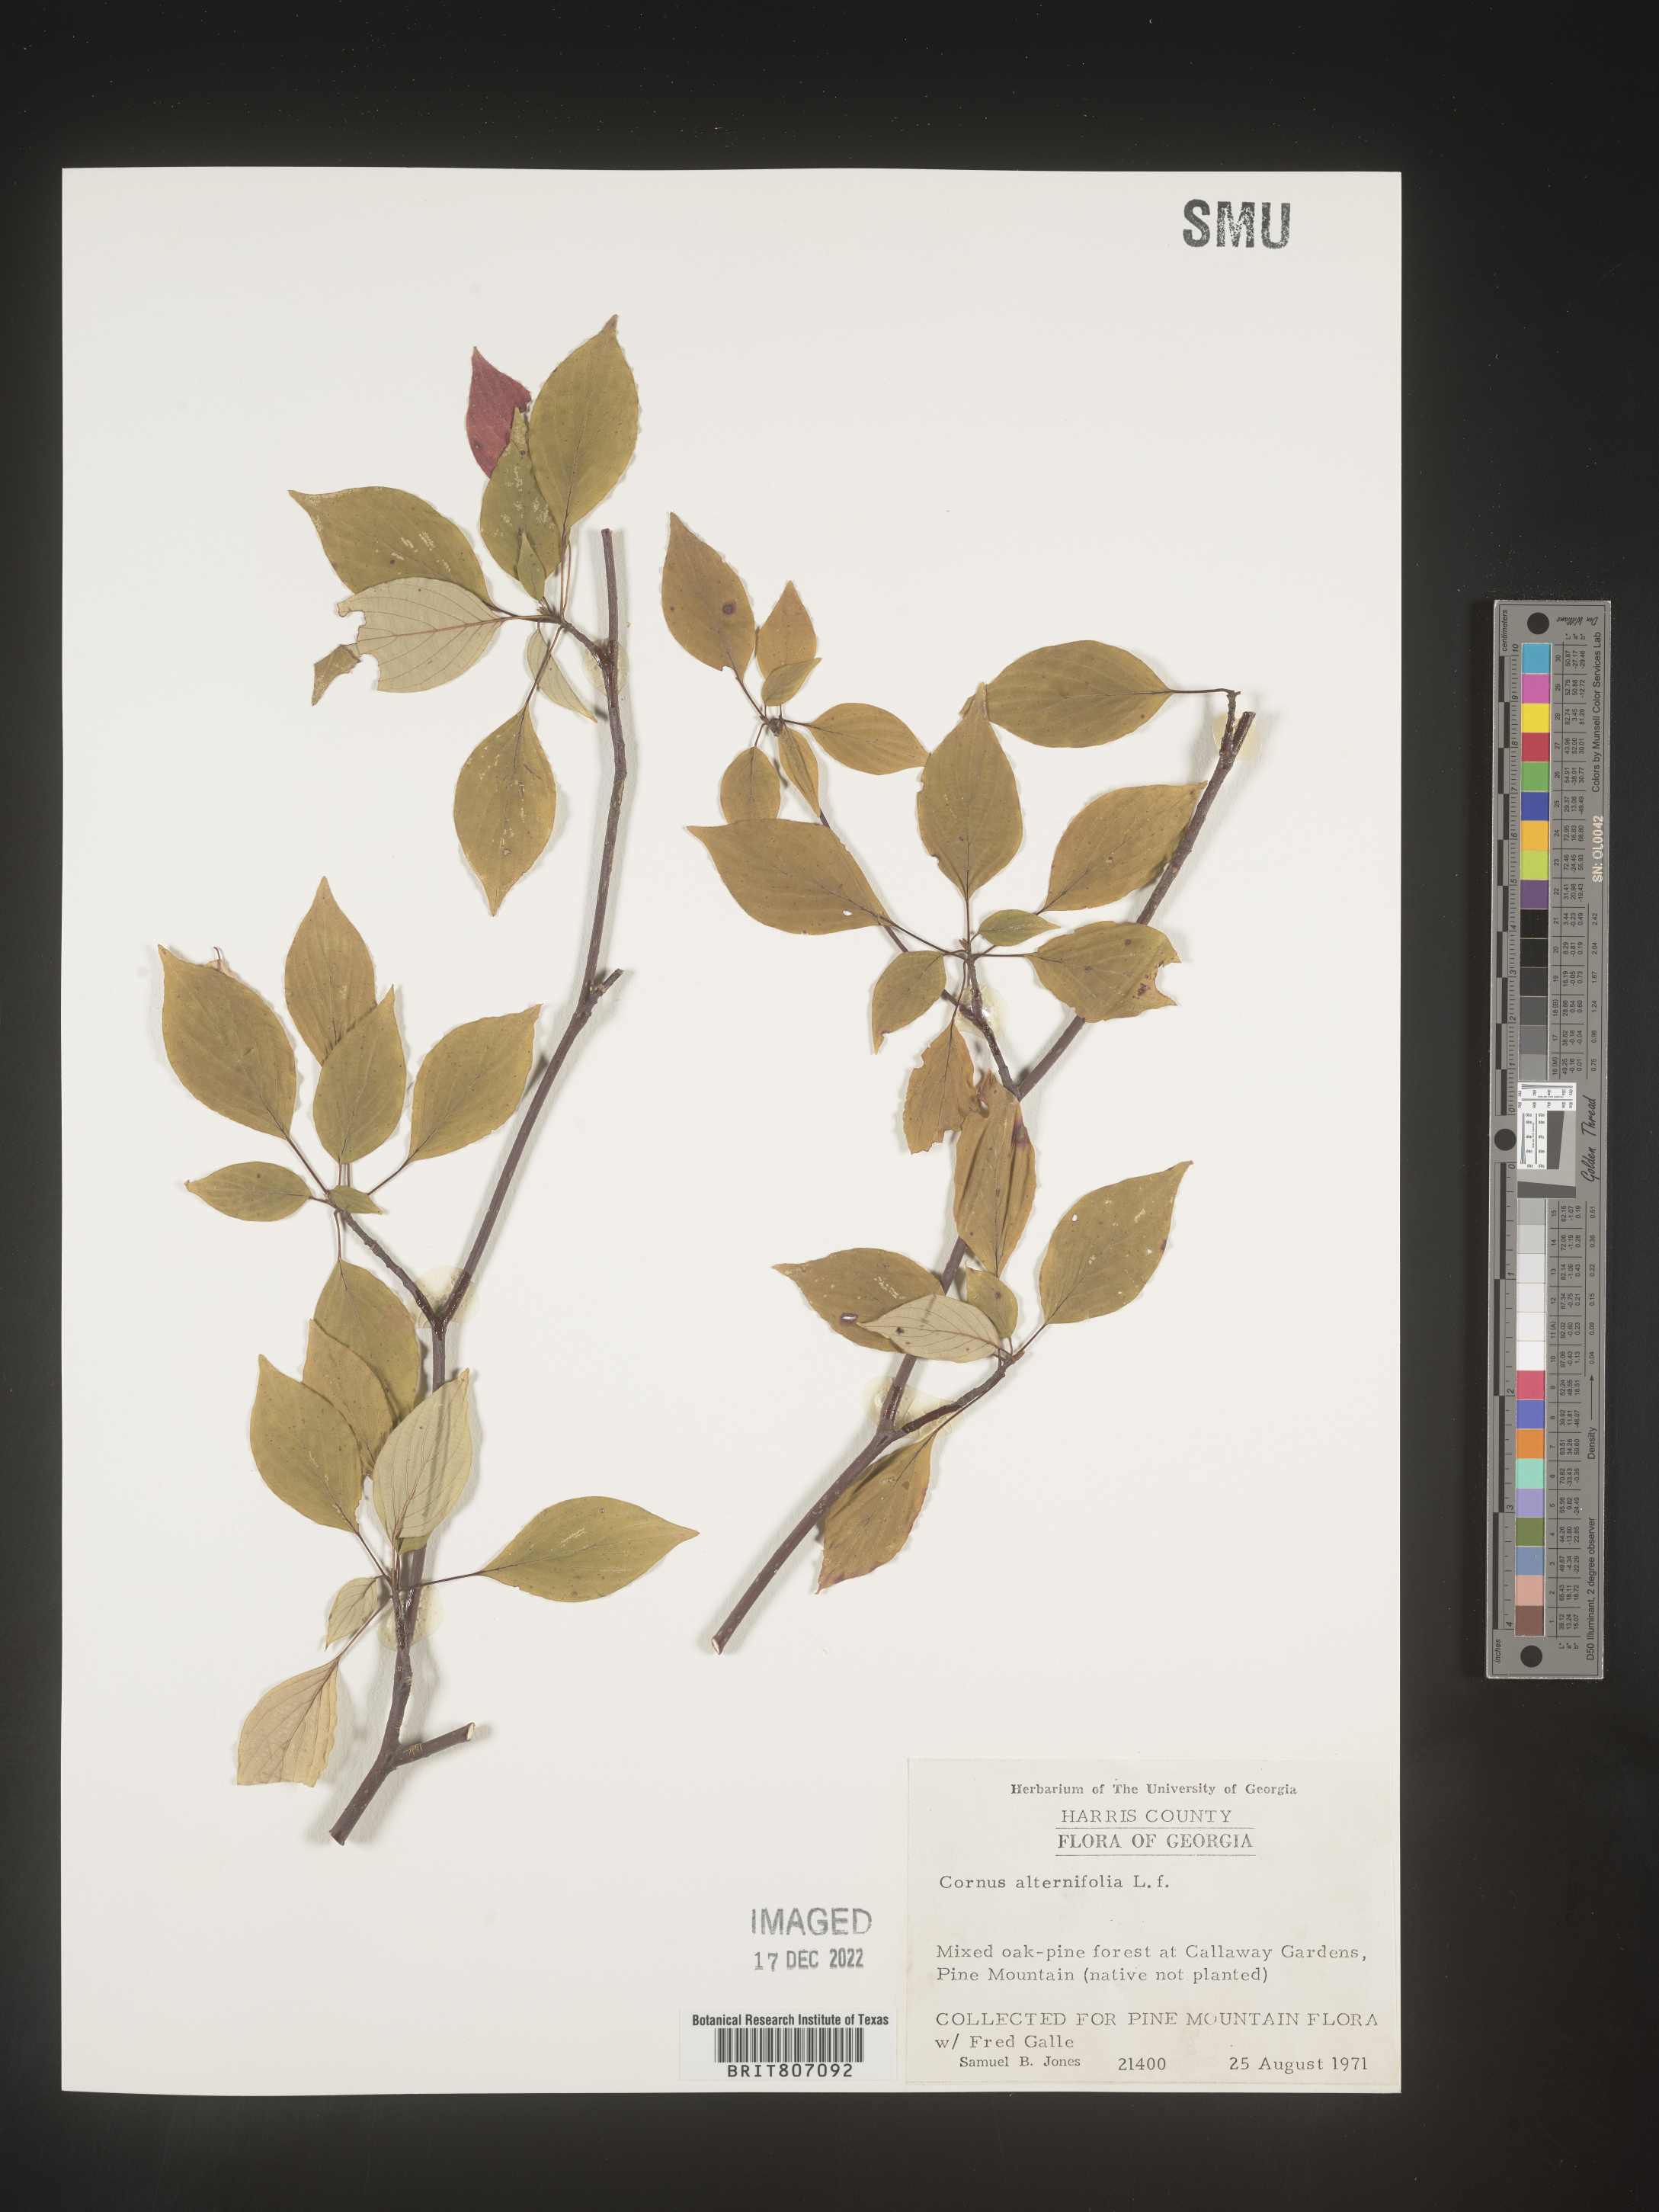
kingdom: Plantae
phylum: Tracheophyta
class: Magnoliopsida
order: Cornales
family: Cornaceae
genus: Cornus
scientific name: Cornus alternifolia
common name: Pagoda dogwood
